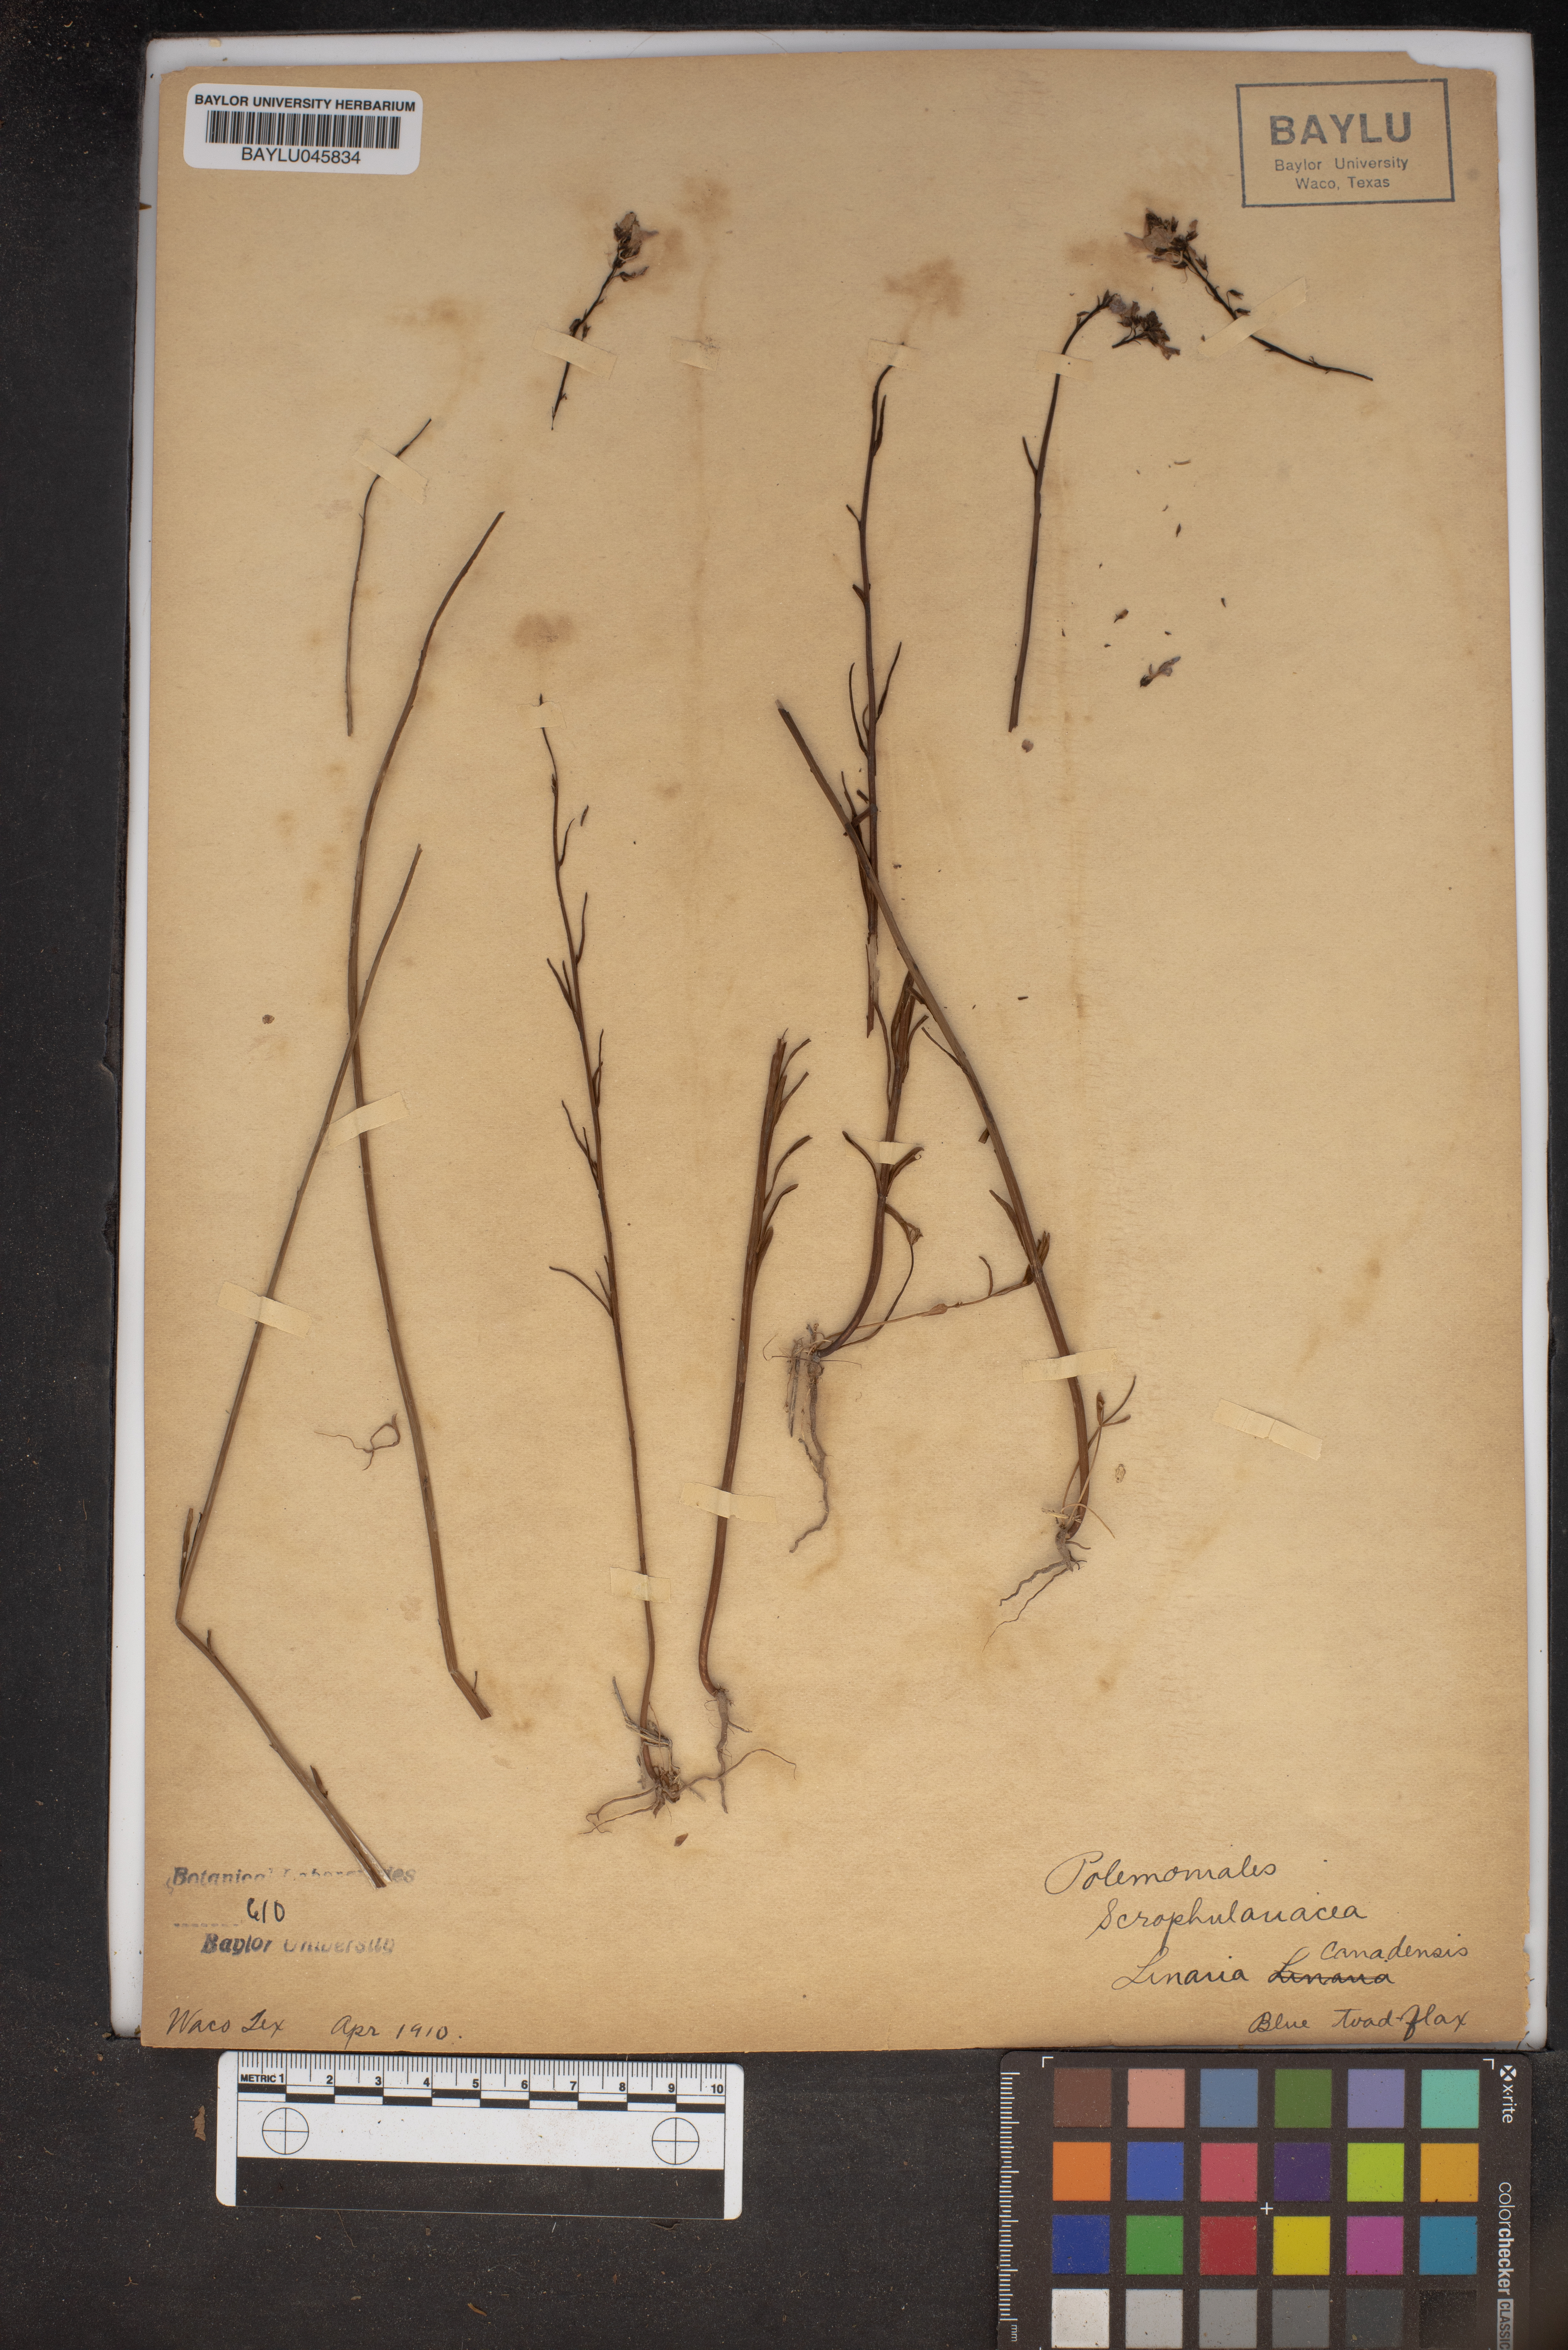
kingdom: Plantae
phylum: Tracheophyta
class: Magnoliopsida
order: Lamiales
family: Plantaginaceae
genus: Nuttallanthus
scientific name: Nuttallanthus canadensis
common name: Blue toadflax
